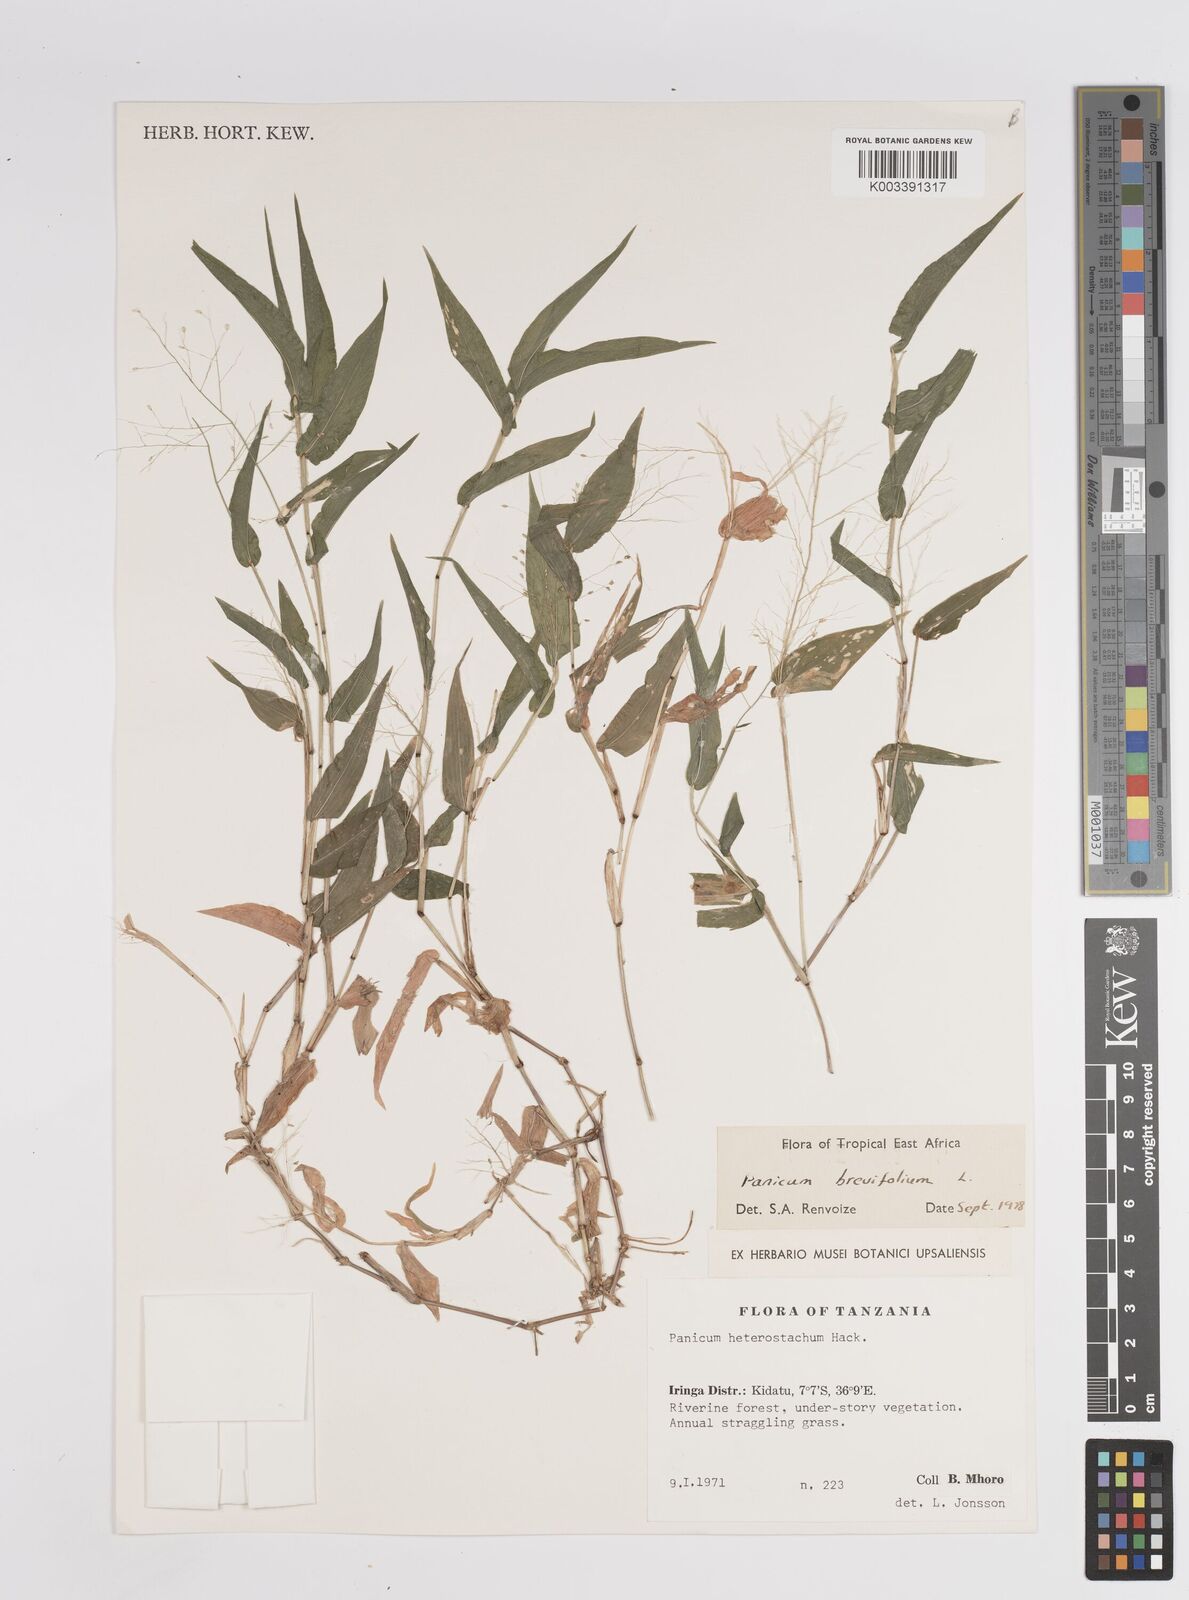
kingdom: Plantae
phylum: Tracheophyta
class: Liliopsida
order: Poales
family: Poaceae
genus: Panicum
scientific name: Panicum brevifolium
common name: Shortleaf panic grass
